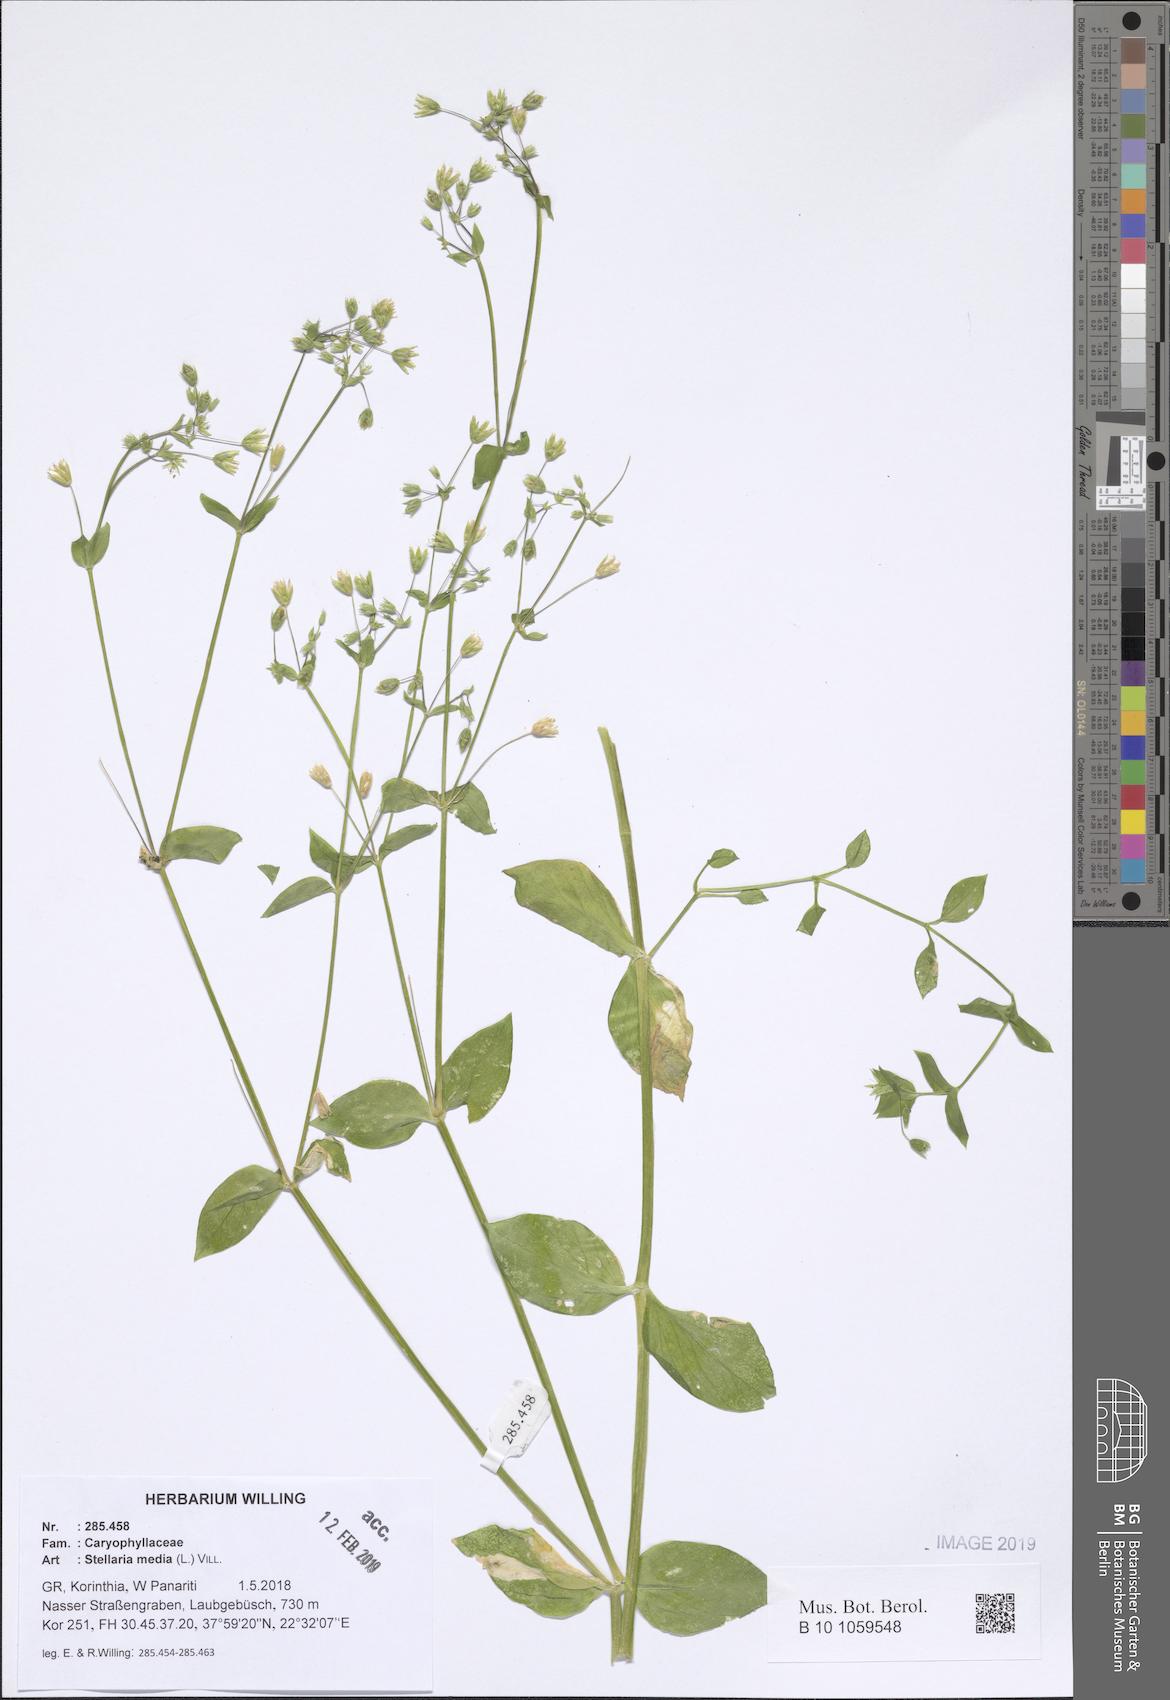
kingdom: Plantae
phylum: Tracheophyta
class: Magnoliopsida
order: Caryophyllales
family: Caryophyllaceae
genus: Stellaria
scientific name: Stellaria media
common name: Common chickweed
